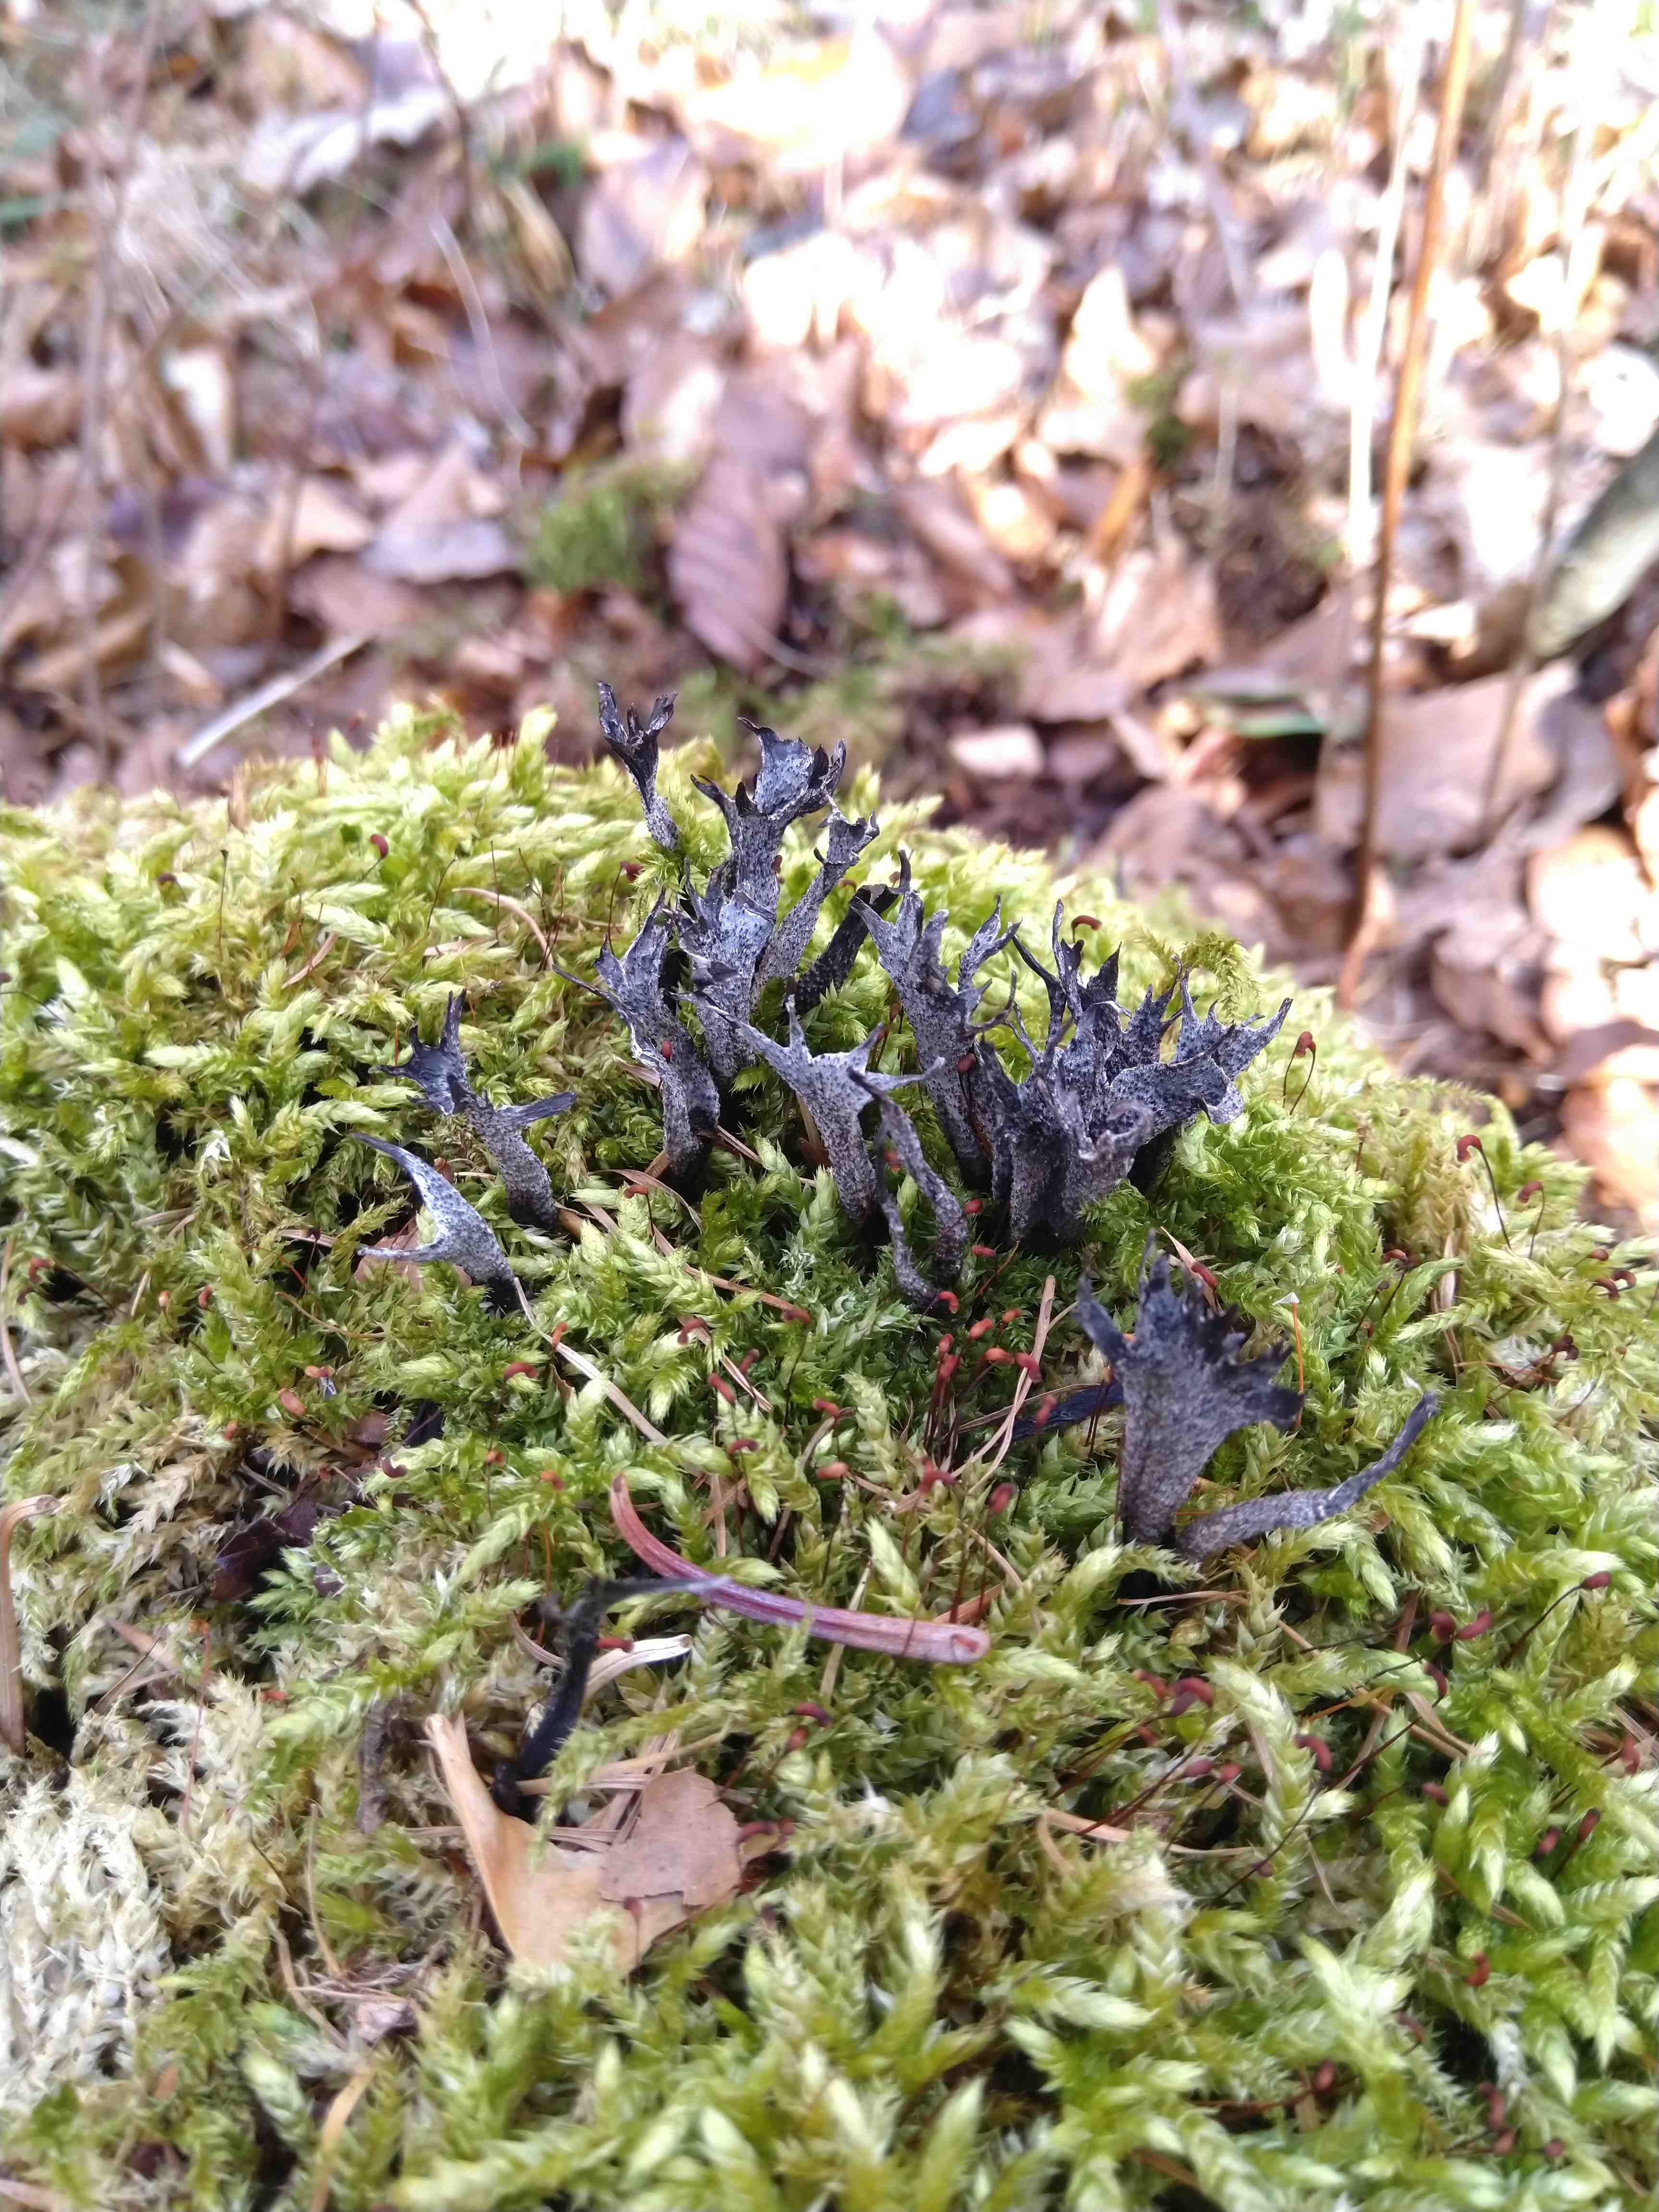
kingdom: Fungi
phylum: Ascomycota
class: Sordariomycetes
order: Xylariales
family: Xylariaceae
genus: Xylaria
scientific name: Xylaria hypoxylon
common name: grenet stødsvamp
